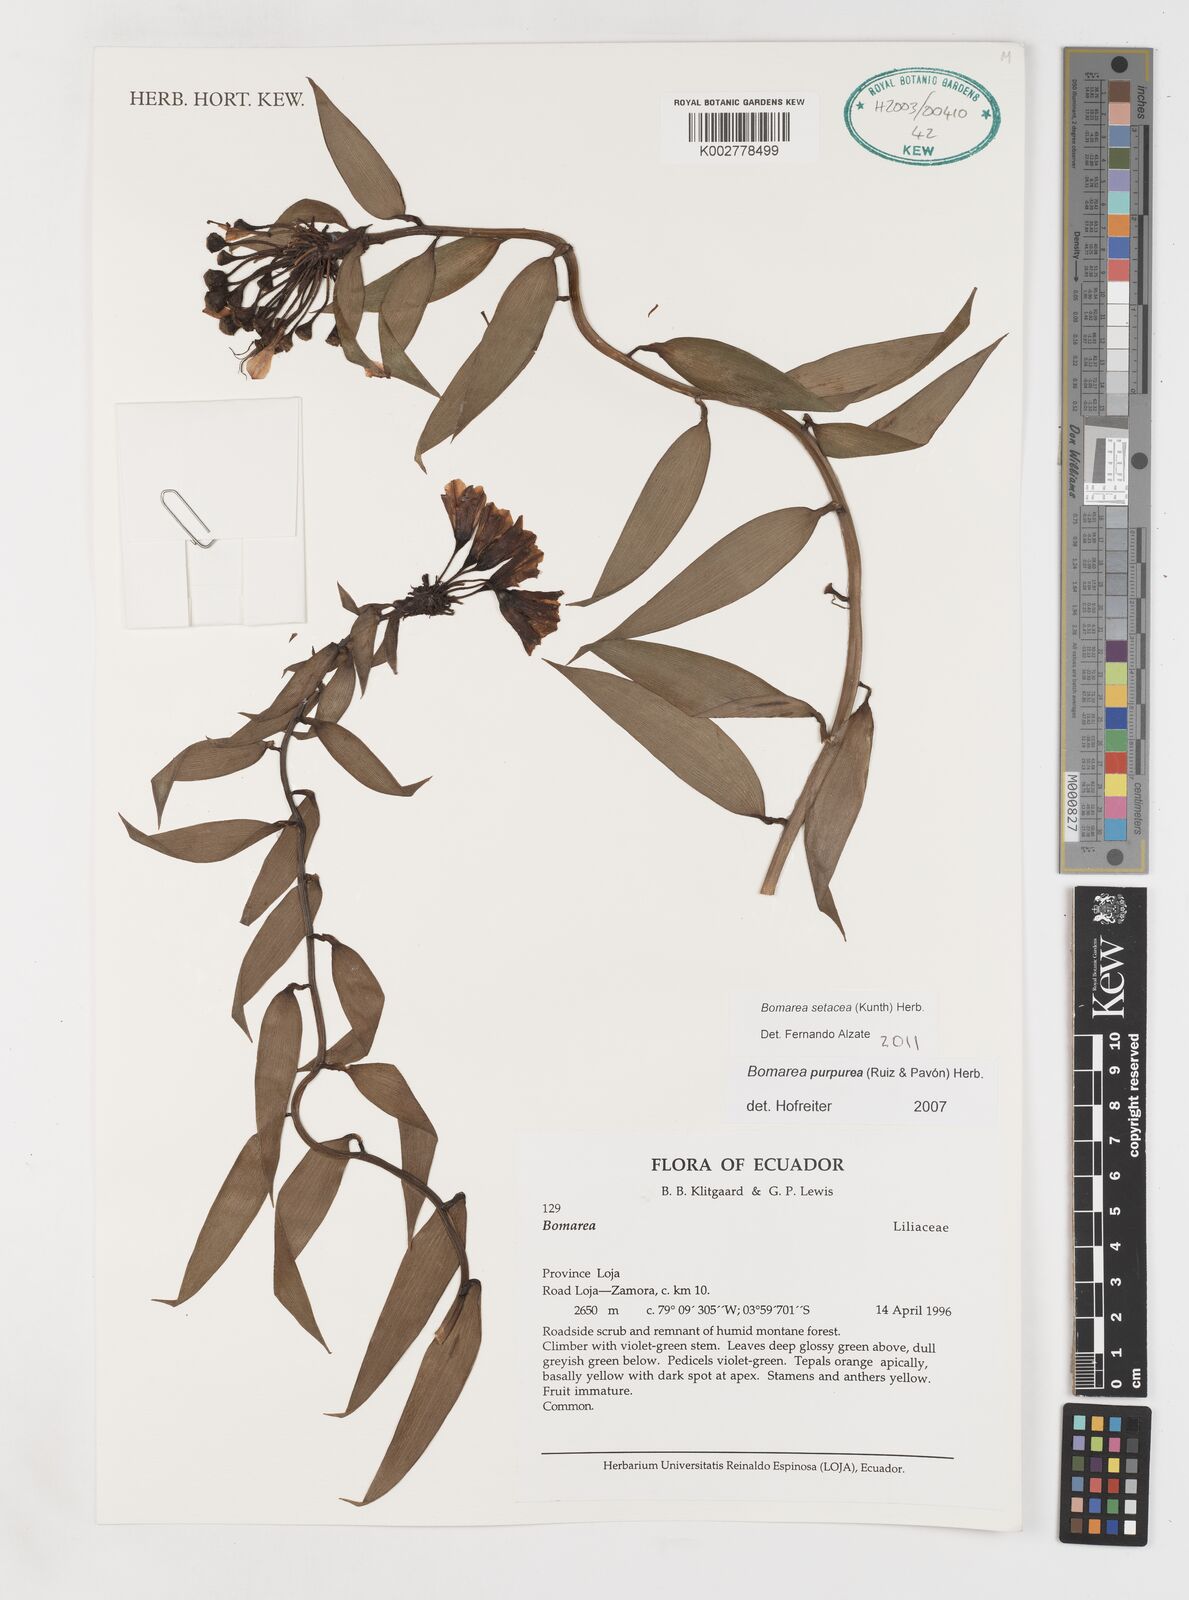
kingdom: Plantae
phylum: Tracheophyta
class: Liliopsida
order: Liliales
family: Alstroemeriaceae
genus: Bomarea
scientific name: Bomarea setacea
